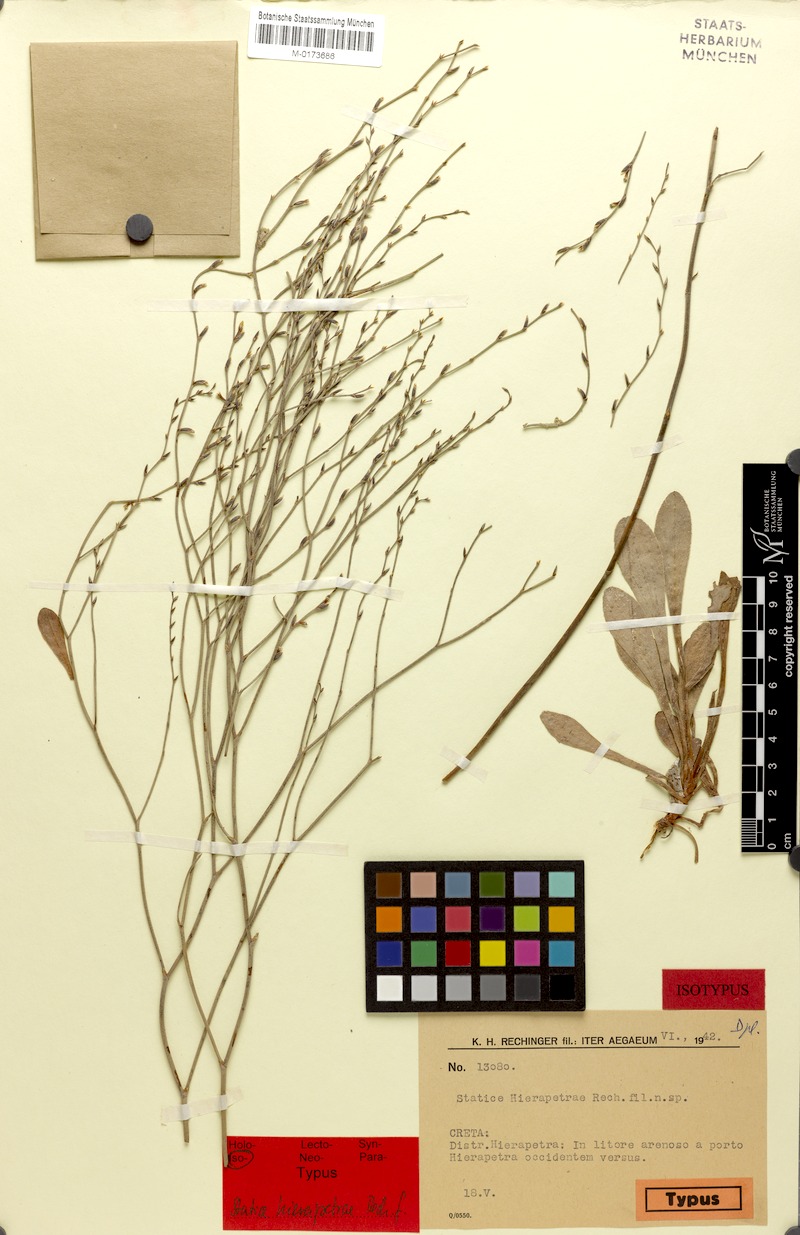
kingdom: Plantae
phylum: Tracheophyta
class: Magnoliopsida
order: Caryophyllales
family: Plumbaginaceae
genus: Limonium
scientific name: Limonium hierapetrae
